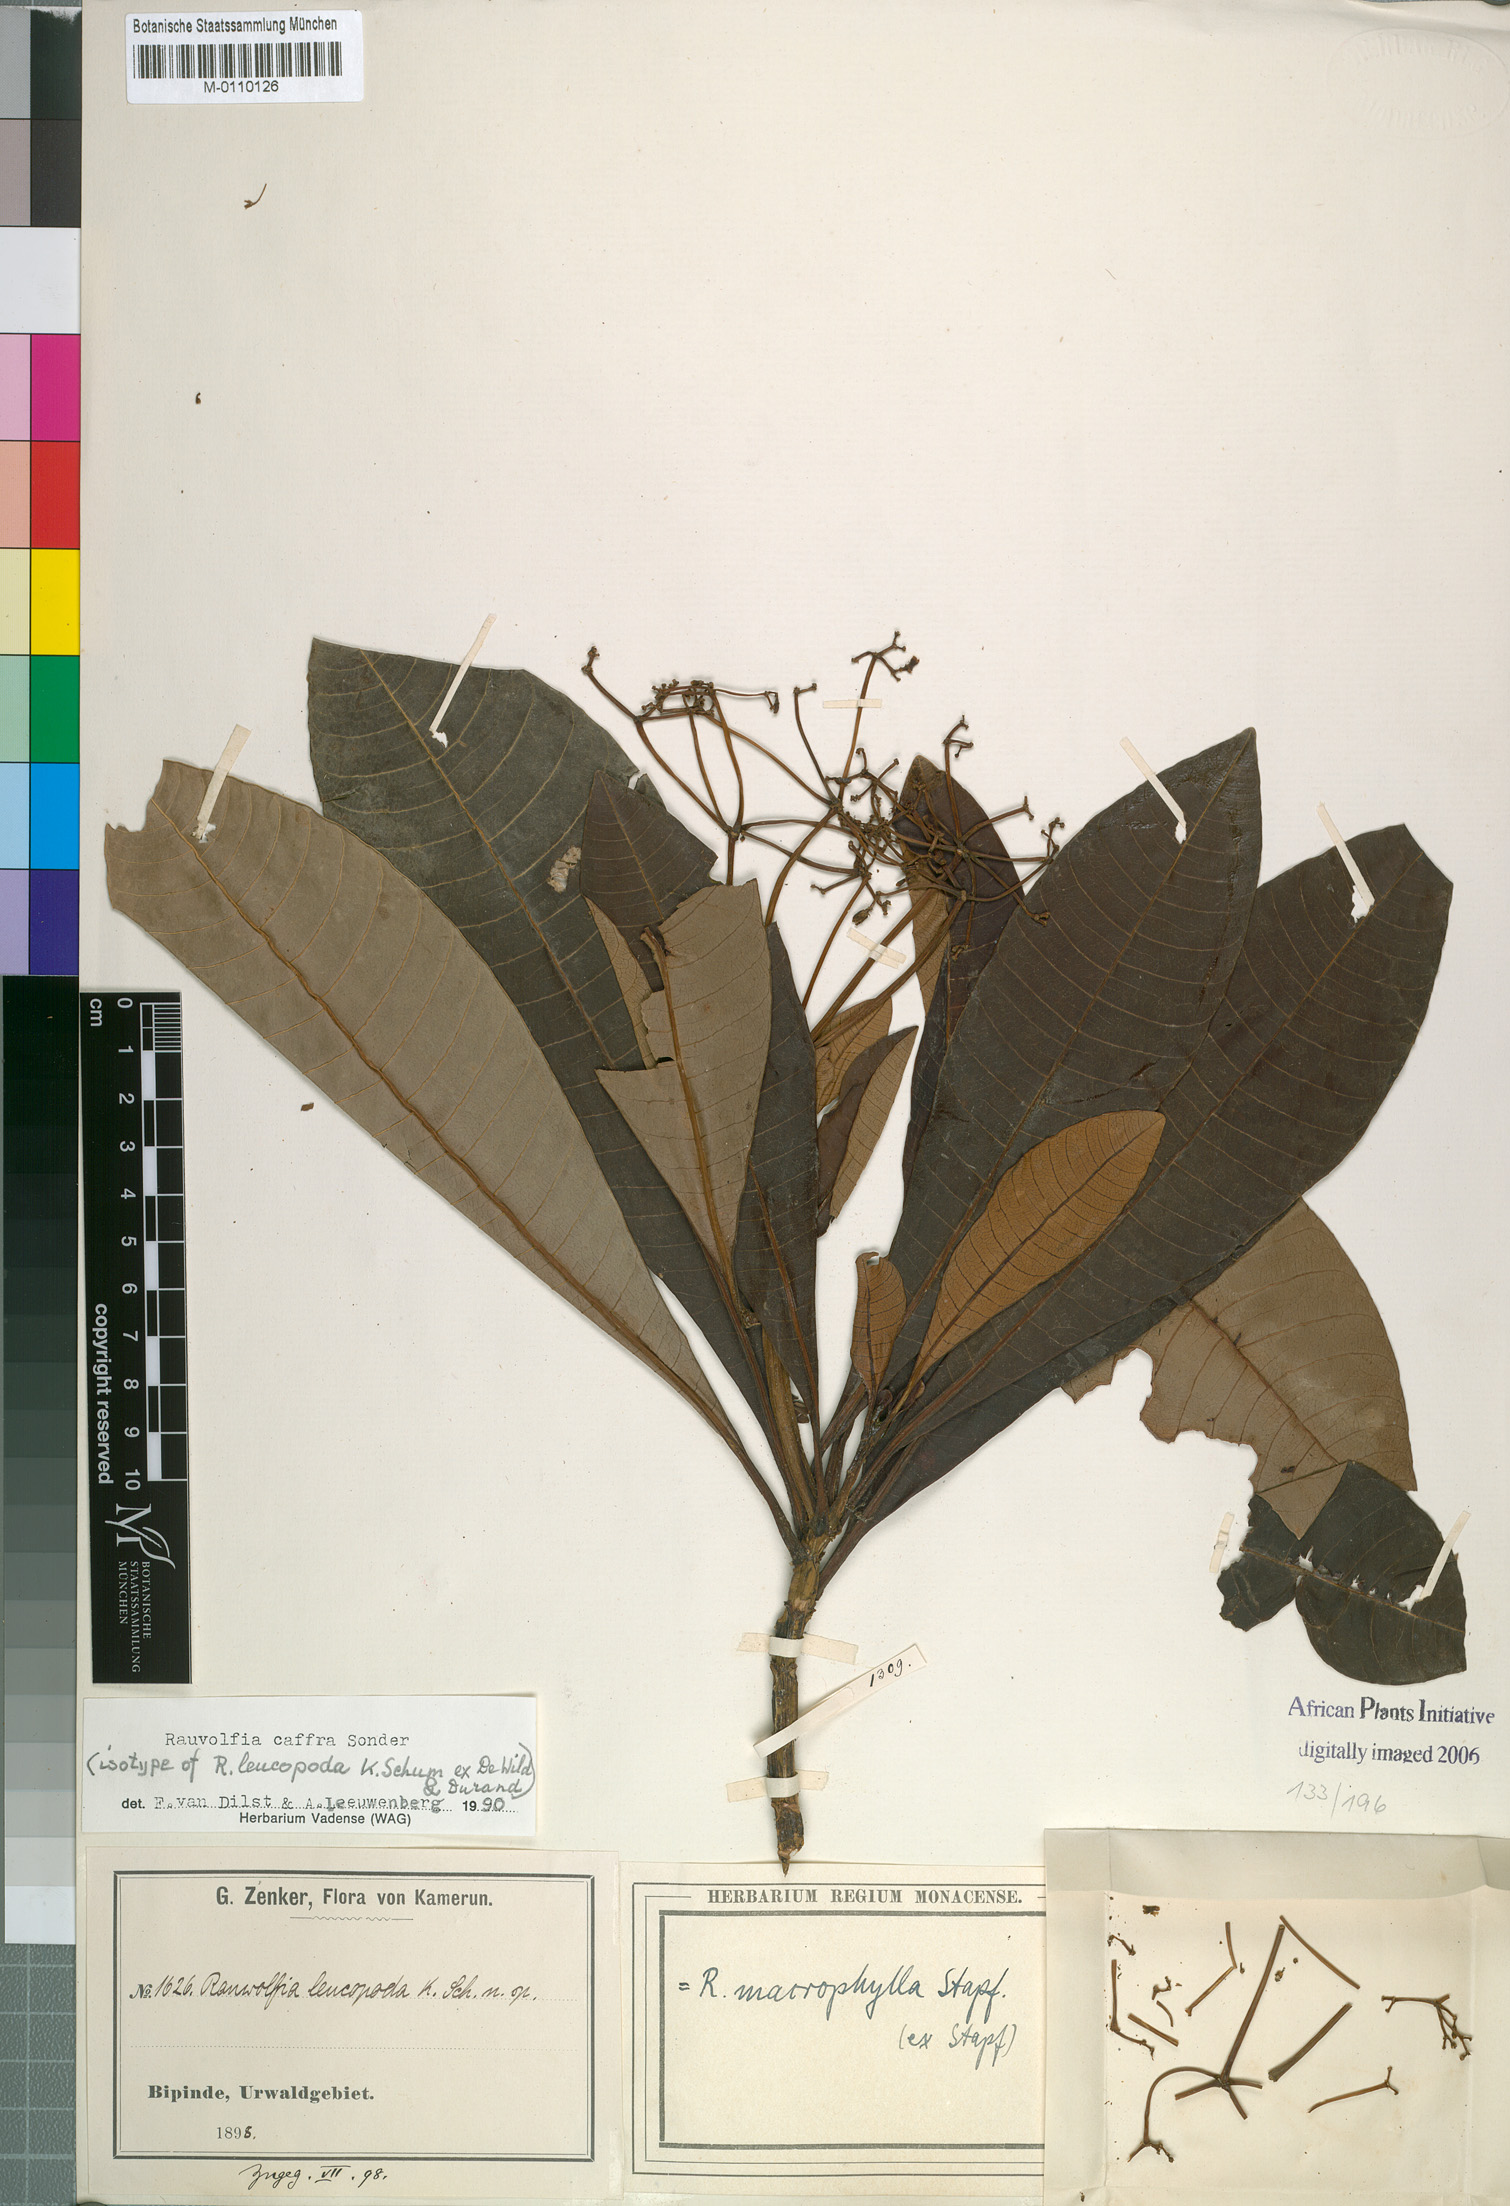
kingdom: Plantae
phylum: Tracheophyta
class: Magnoliopsida
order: Gentianales
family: Apocynaceae
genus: Rauvolfia
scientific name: Rauvolfia caffra
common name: Quininetree
